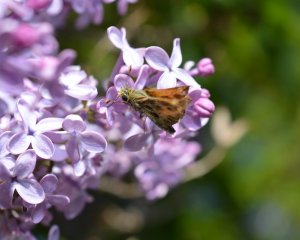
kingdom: Animalia
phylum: Arthropoda
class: Insecta
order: Lepidoptera
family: Hesperiidae
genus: Polites
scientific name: Polites sabuleti
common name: Sandhill Skipper
